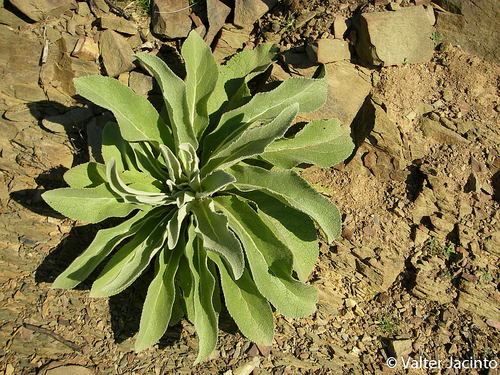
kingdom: Plantae
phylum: Tracheophyta
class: Magnoliopsida
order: Lamiales
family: Scrophulariaceae
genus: Verbascum
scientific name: Verbascum thapsus
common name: Common mullein
